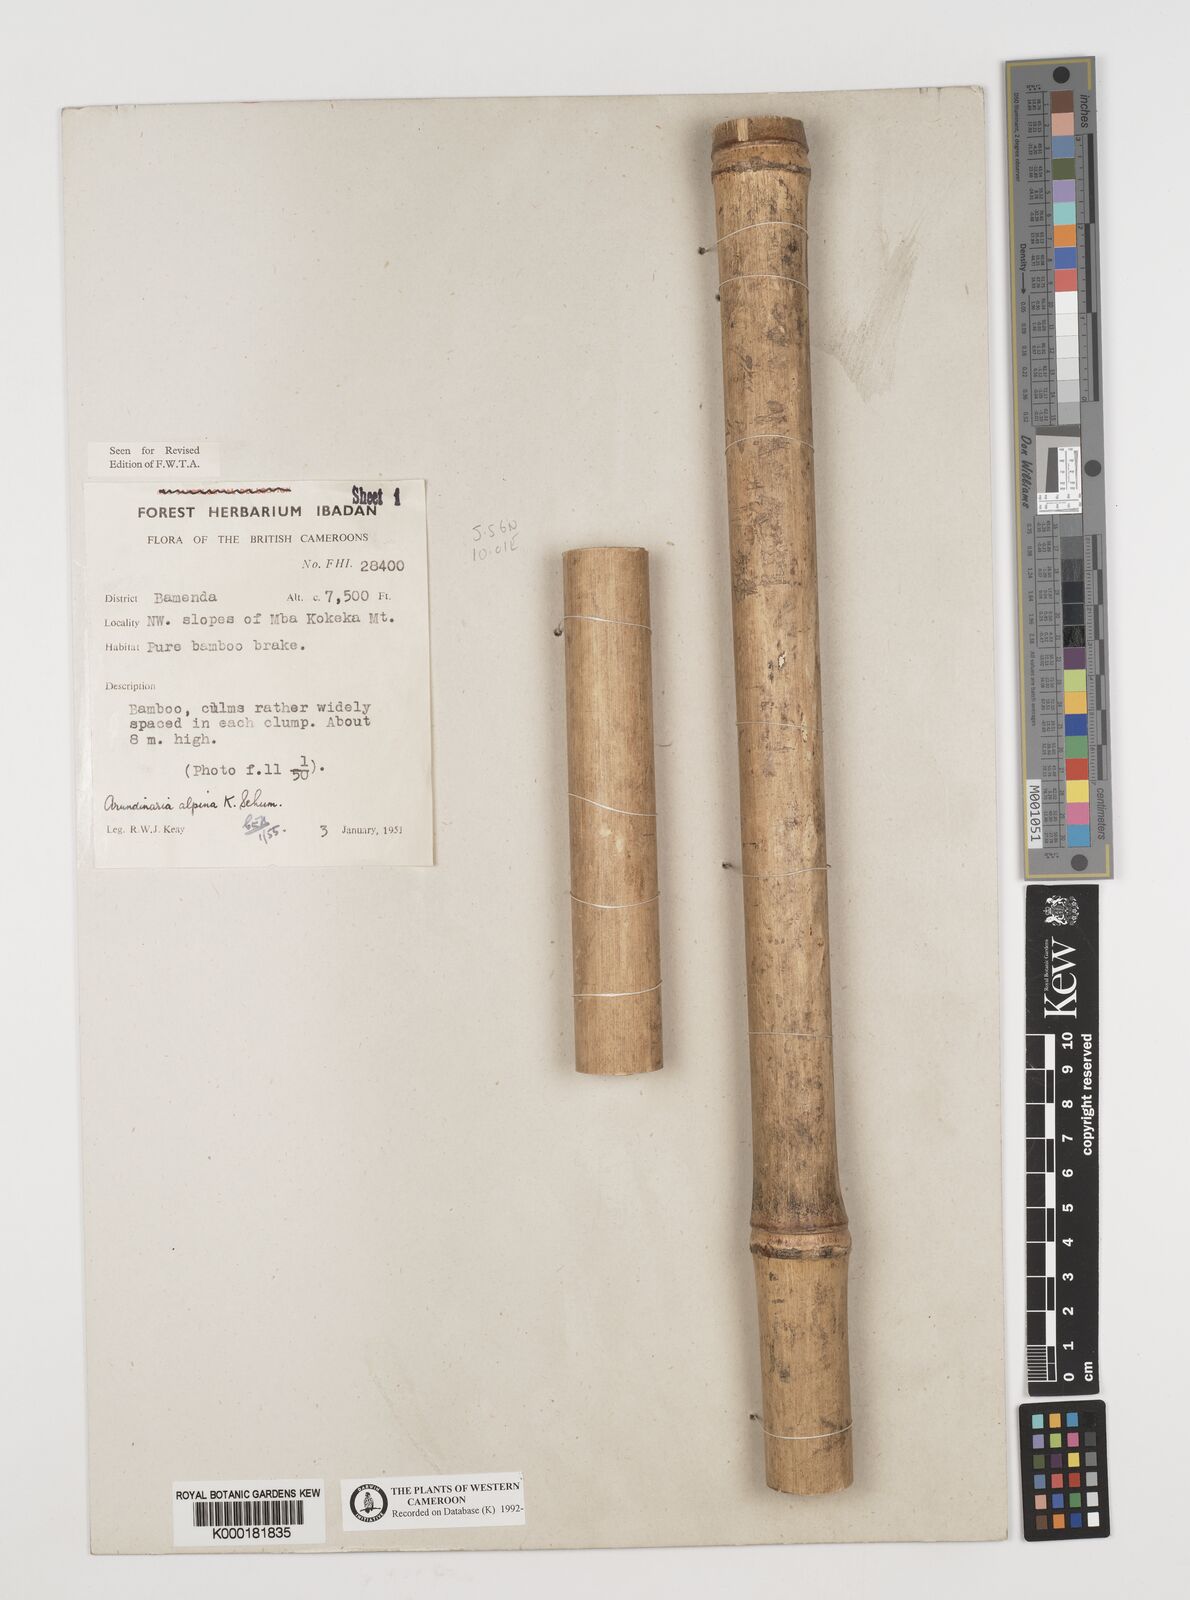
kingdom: Plantae
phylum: Tracheophyta
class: Liliopsida
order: Poales
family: Poaceae
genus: Fargesia
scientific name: Fargesia
